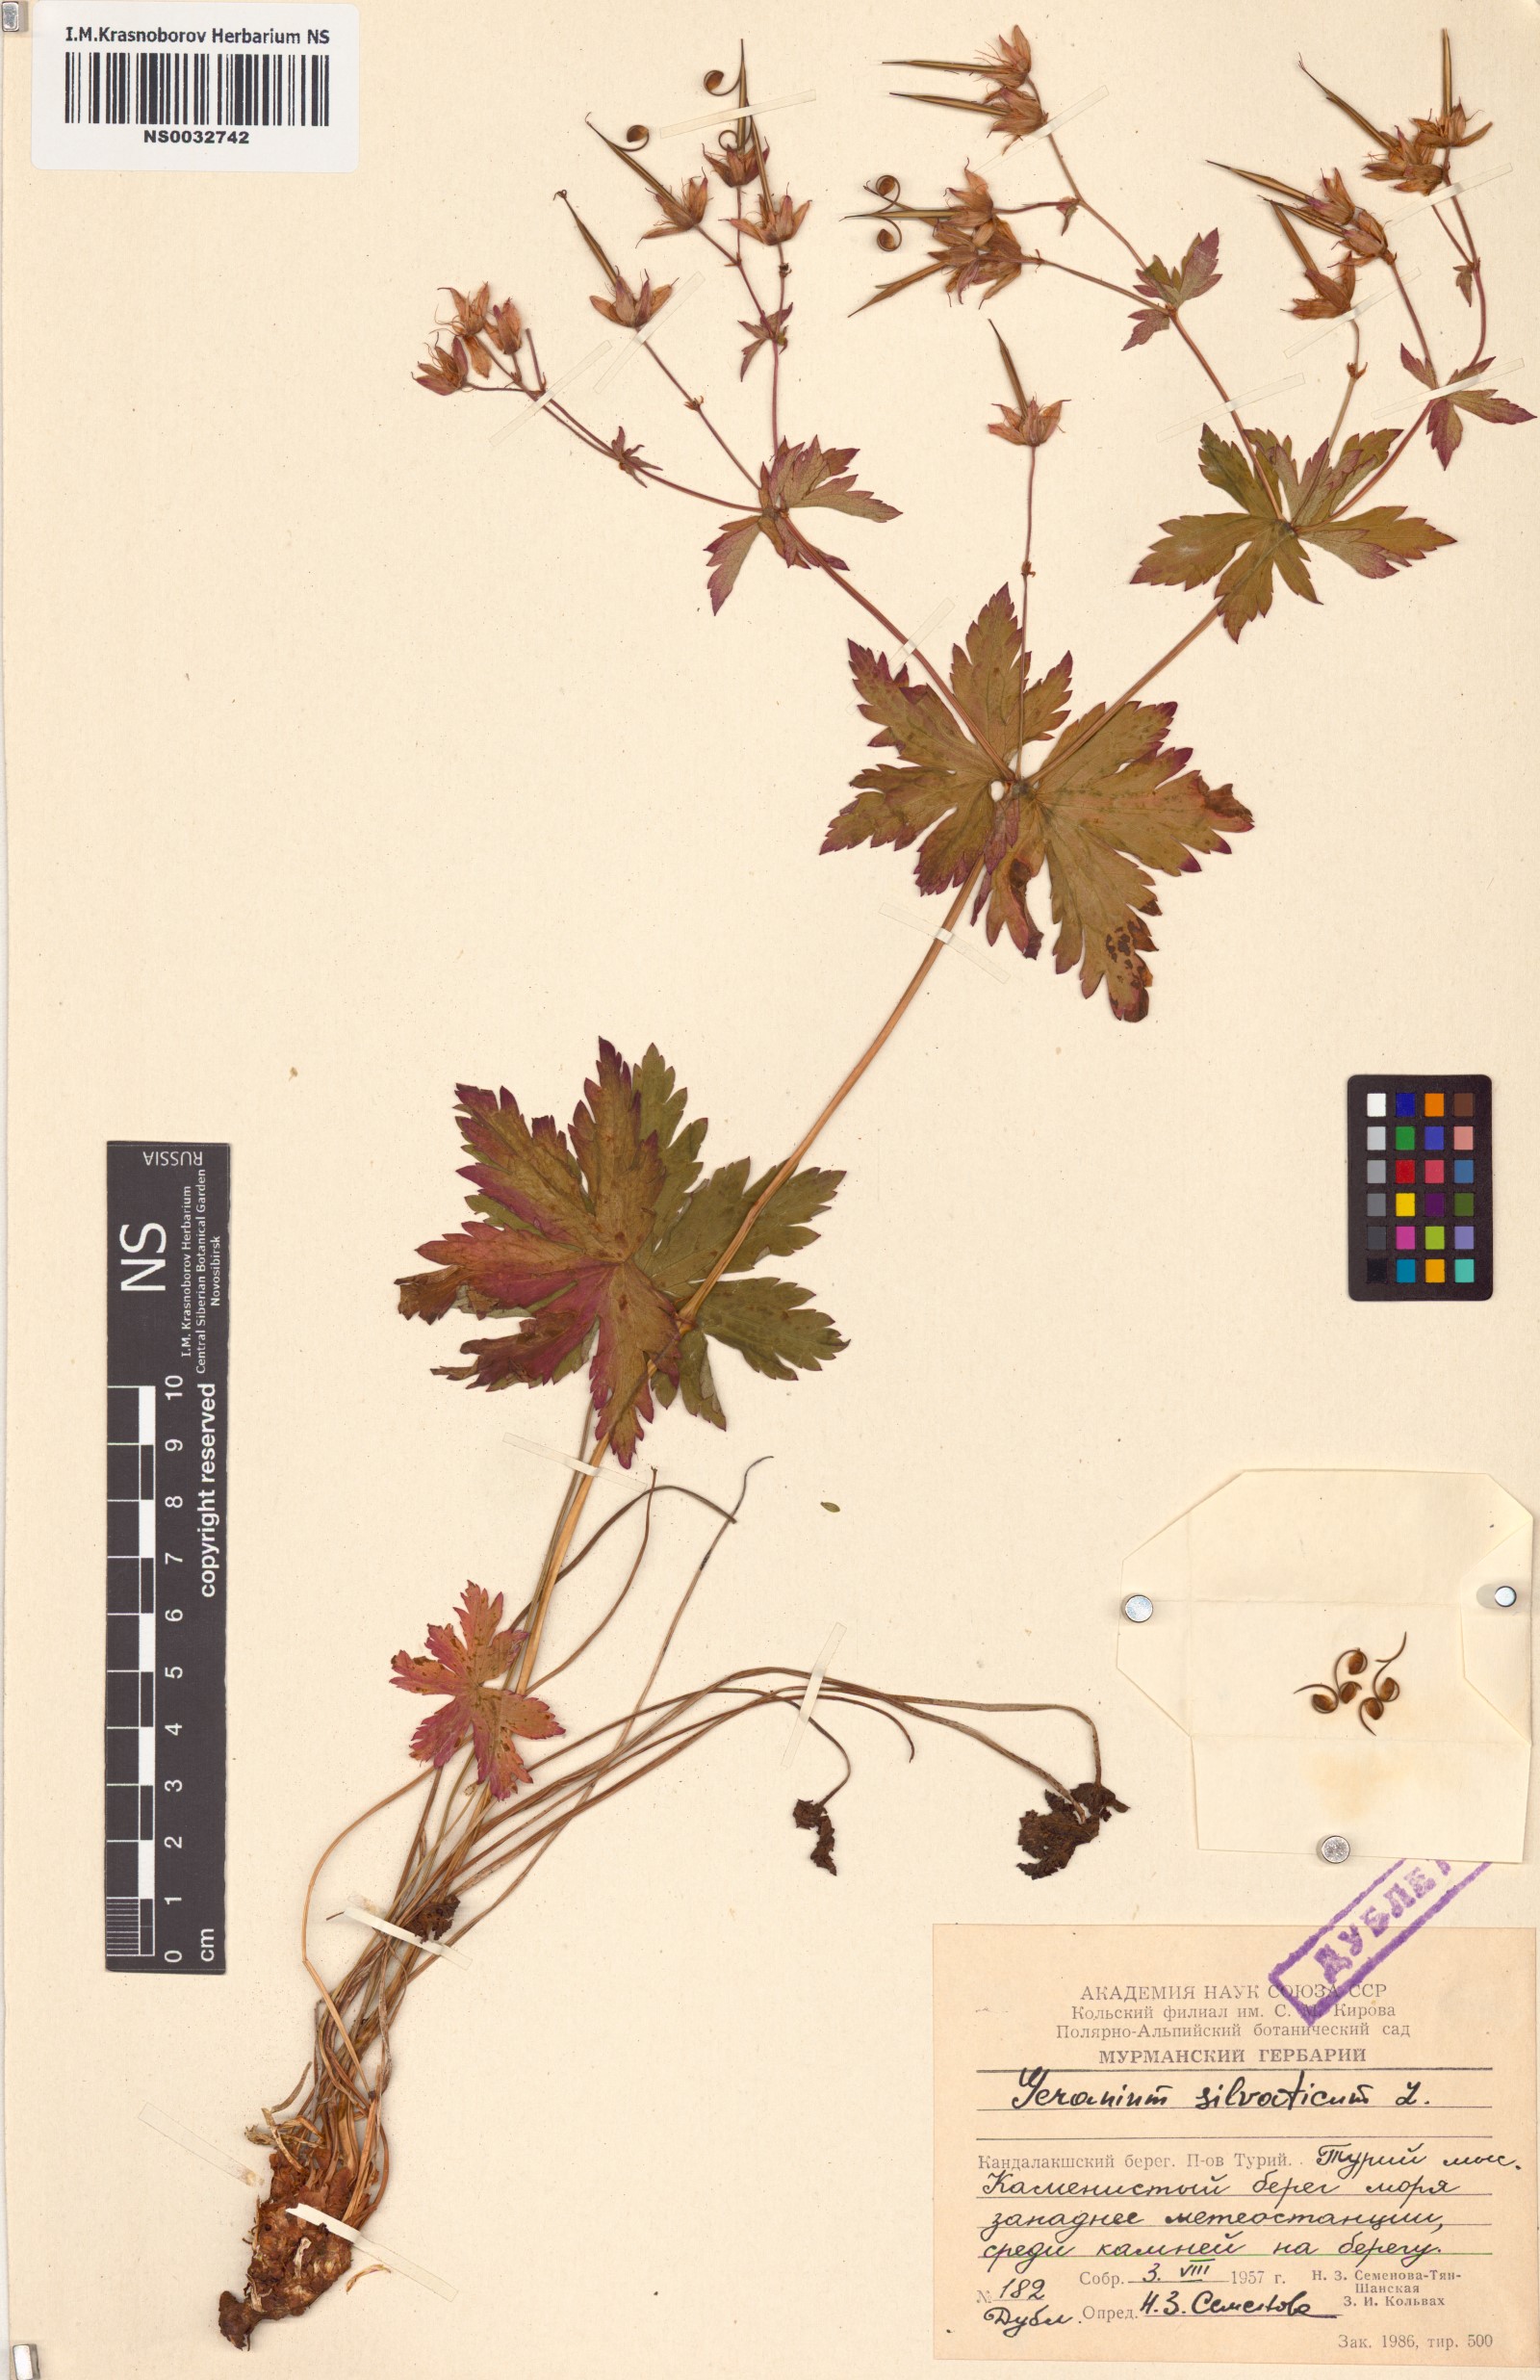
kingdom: Plantae
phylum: Tracheophyta
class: Magnoliopsida
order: Geraniales
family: Geraniaceae
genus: Geranium
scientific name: Geranium sylvaticum
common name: Wood crane's-bill
